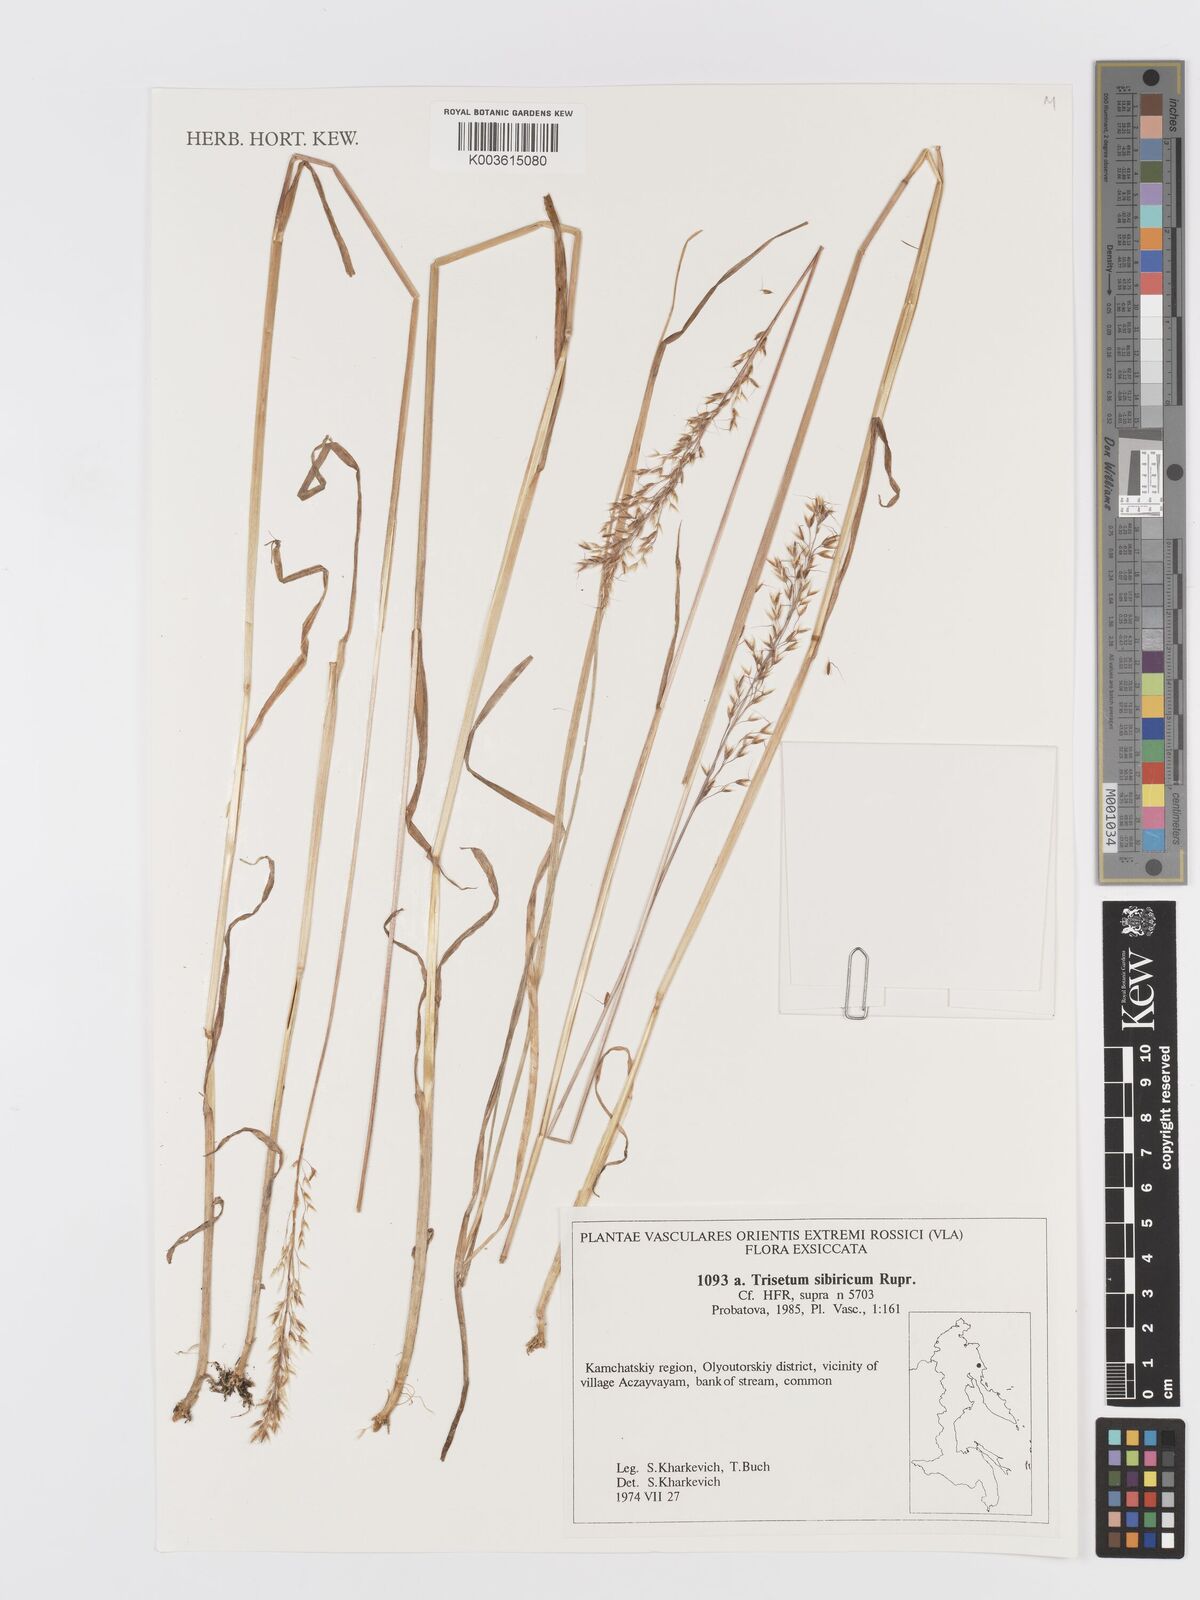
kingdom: Plantae
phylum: Tracheophyta
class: Liliopsida
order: Poales
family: Poaceae
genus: Sibirotrisetum
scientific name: Sibirotrisetum sibiricum
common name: Siberian false oat
